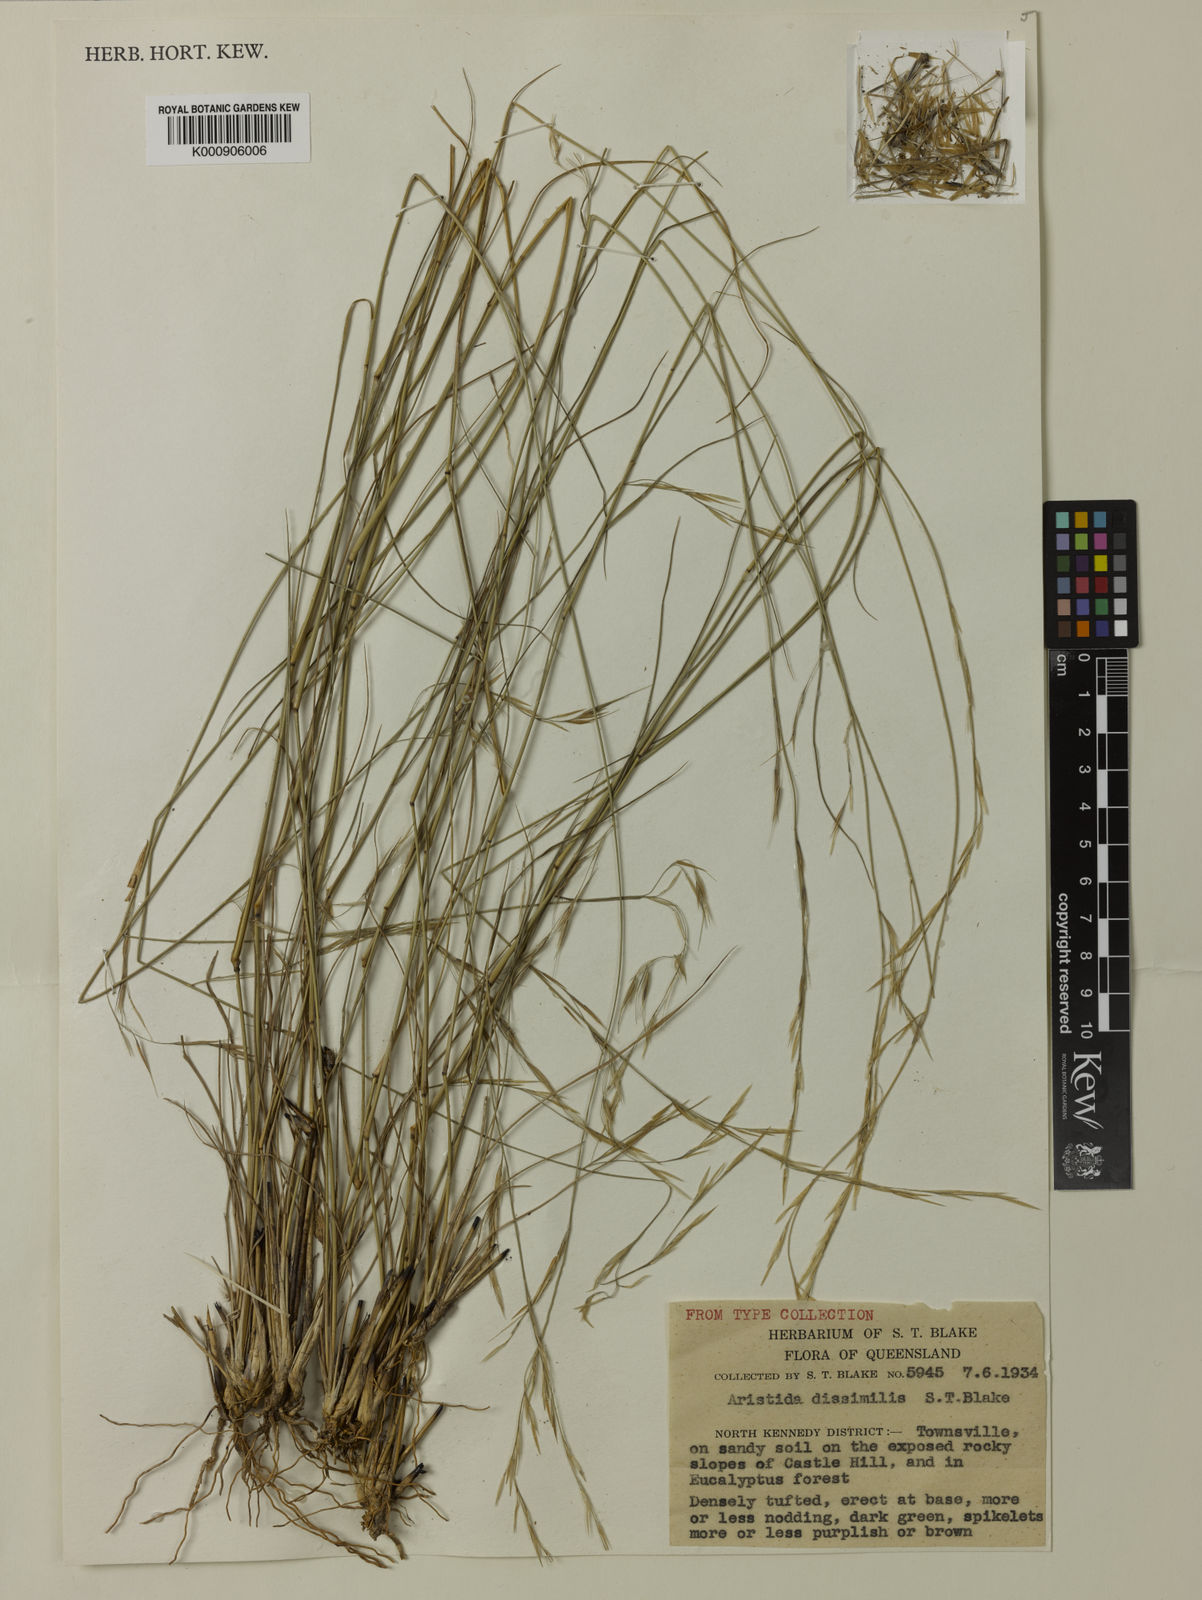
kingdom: Plantae
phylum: Tracheophyta
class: Liliopsida
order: Poales
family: Poaceae
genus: Aristida
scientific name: Aristida queenslandica
